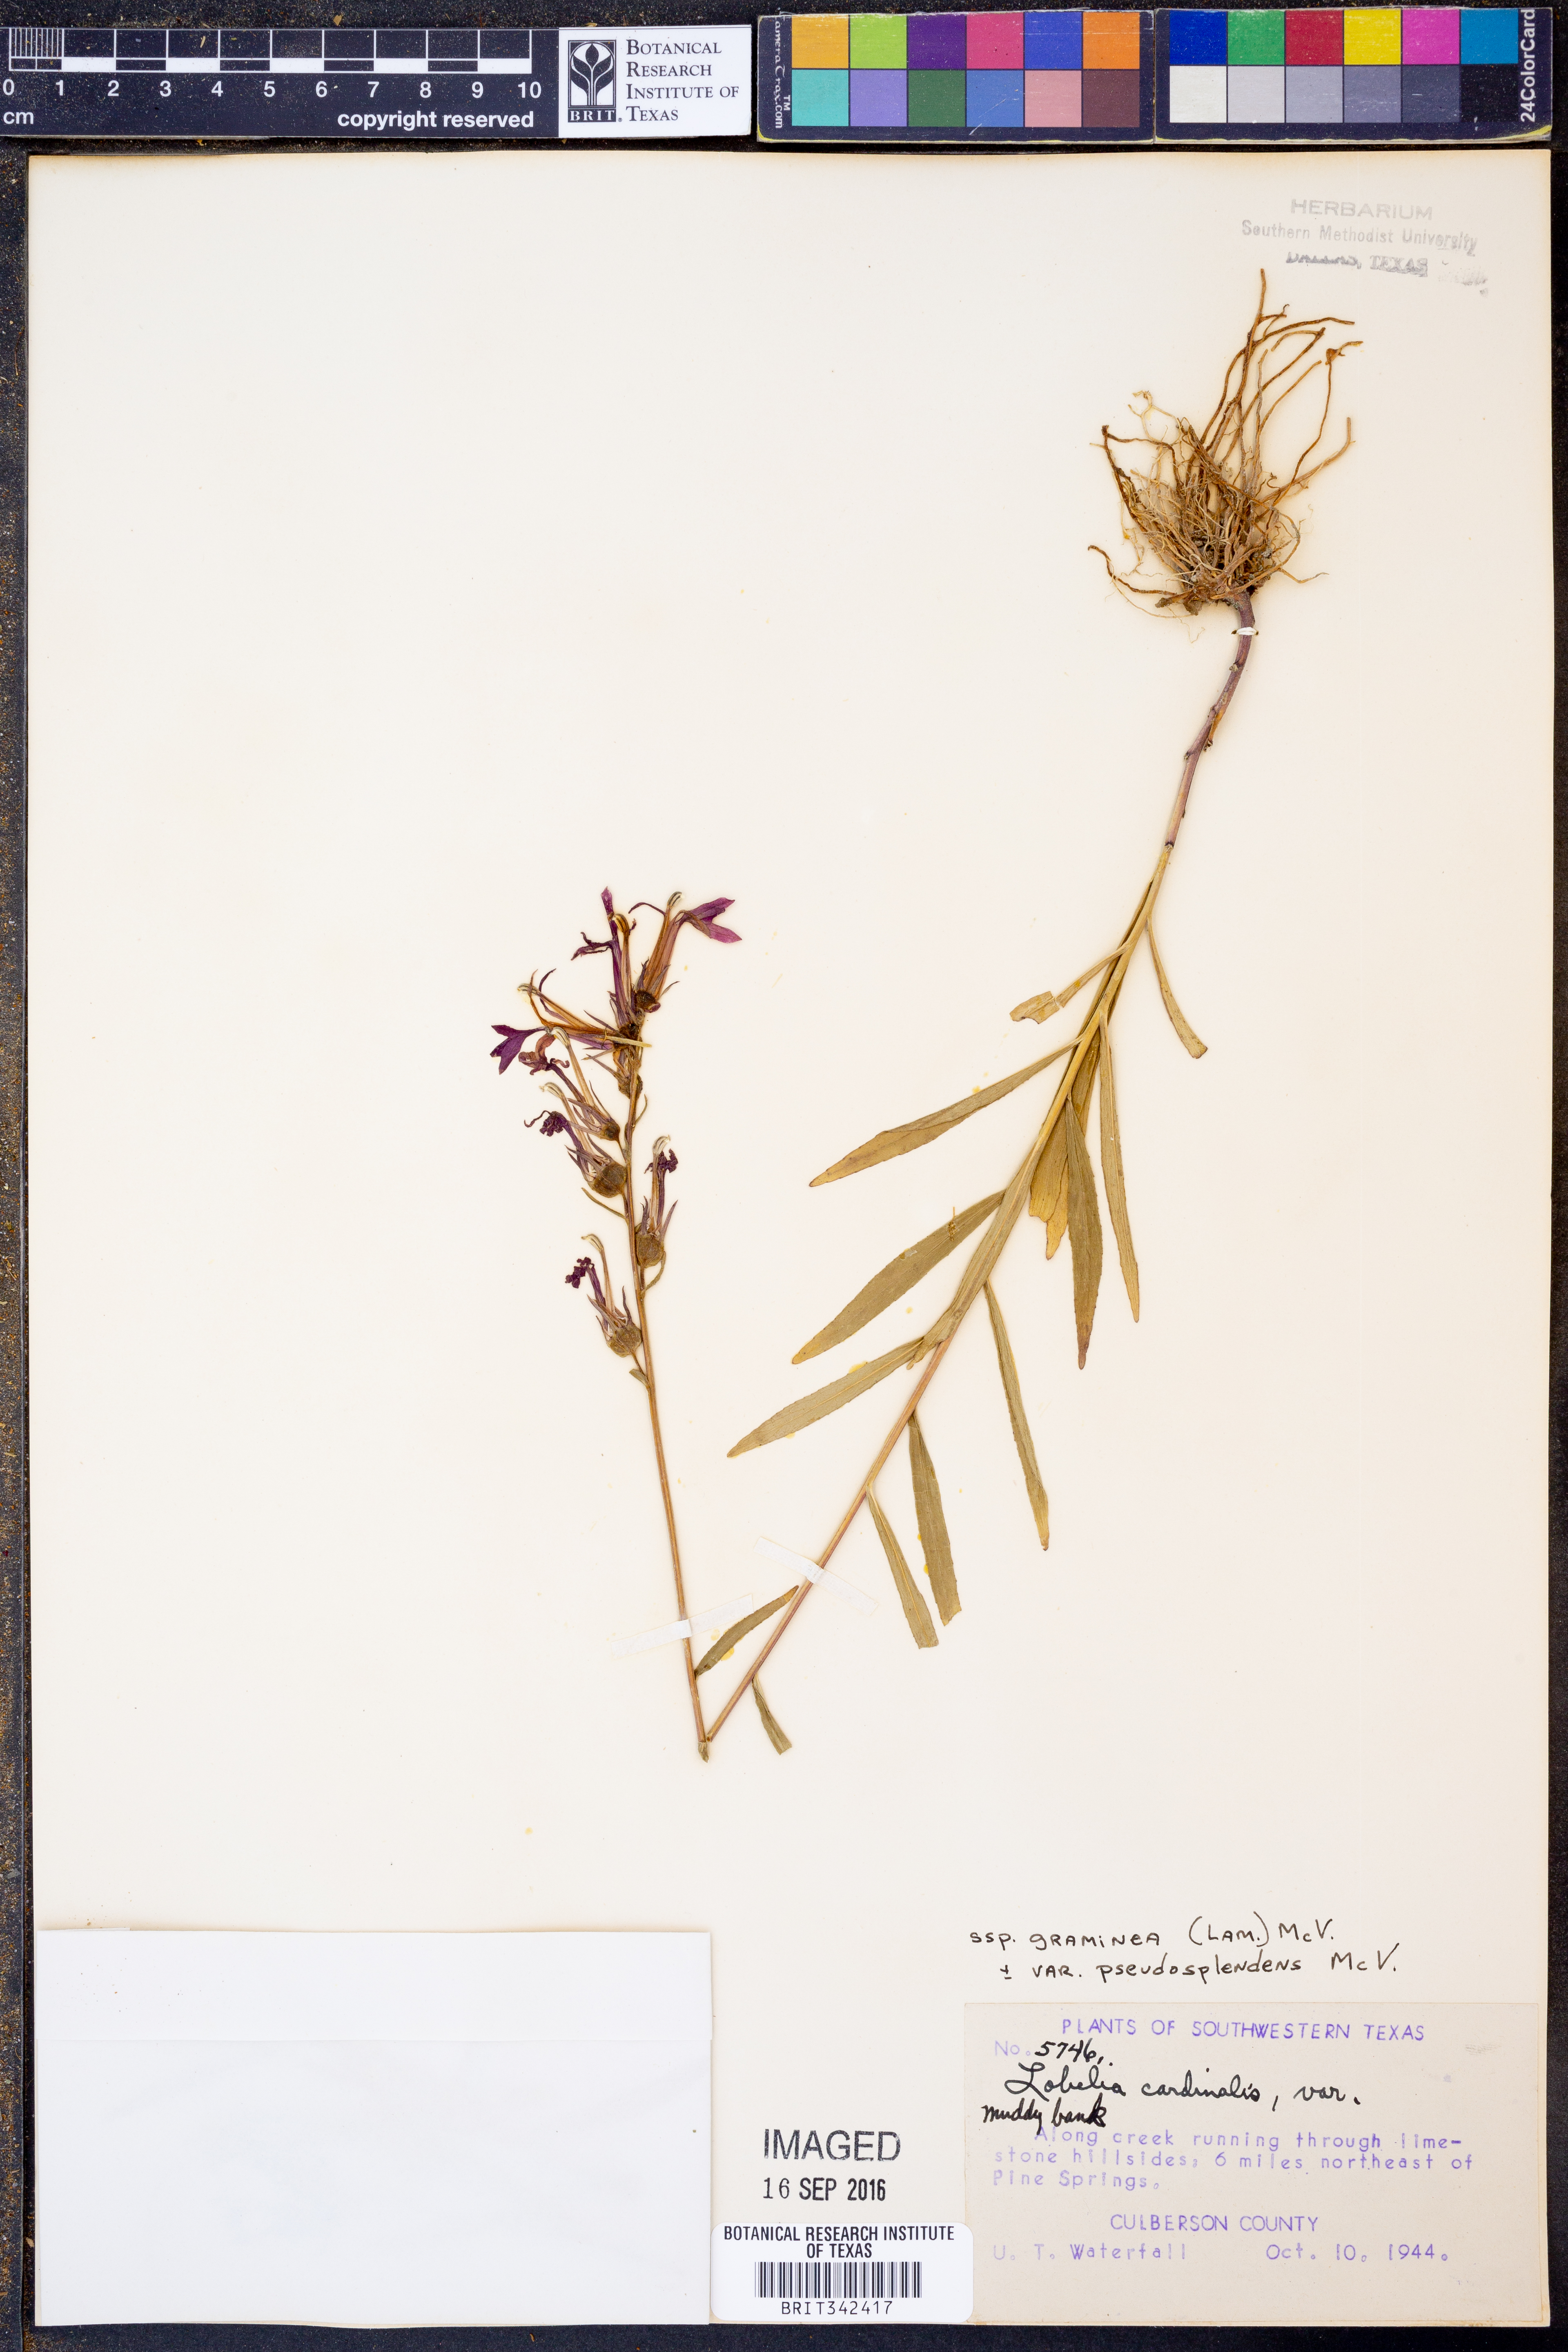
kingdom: Plantae
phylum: Tracheophyta
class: Magnoliopsida
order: Asterales
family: Campanulaceae
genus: Lobelia
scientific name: Lobelia cardinalis
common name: Cardinal flower
